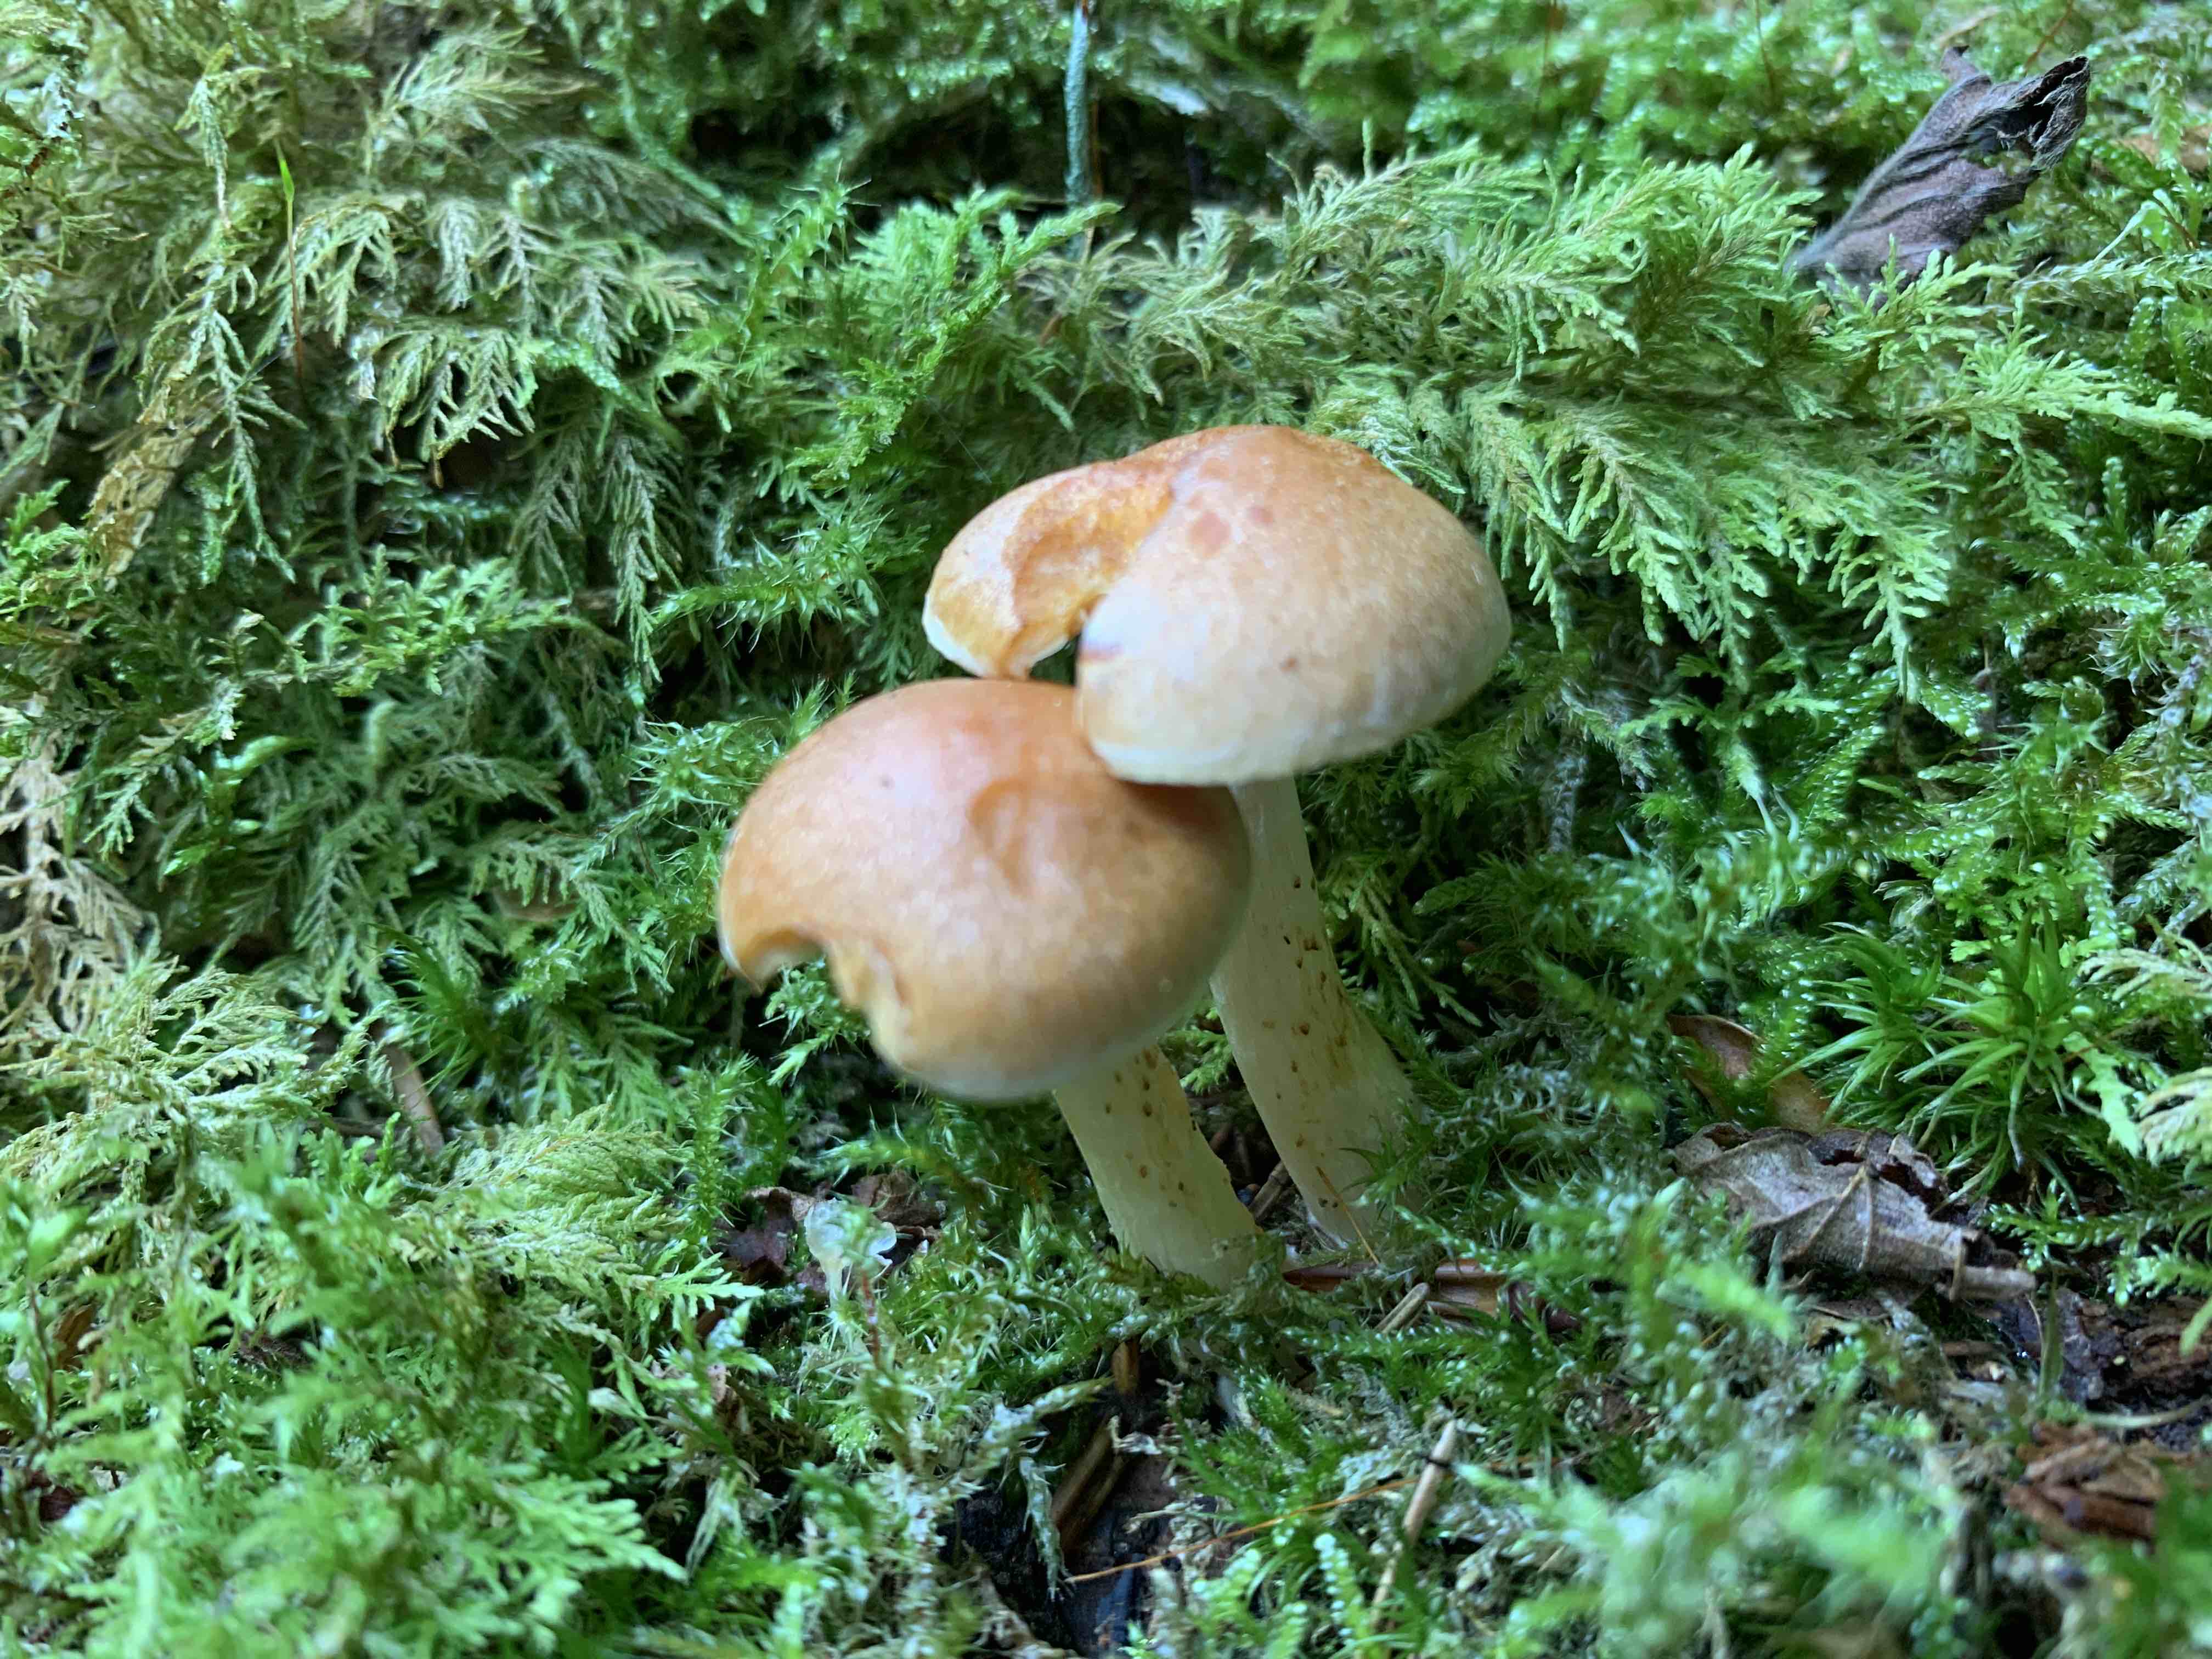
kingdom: Fungi
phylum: Basidiomycota
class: Agaricomycetes
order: Agaricales
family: Hymenogastraceae
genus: Gymnopilus
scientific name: Gymnopilus penetrans
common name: plettet flammehat
